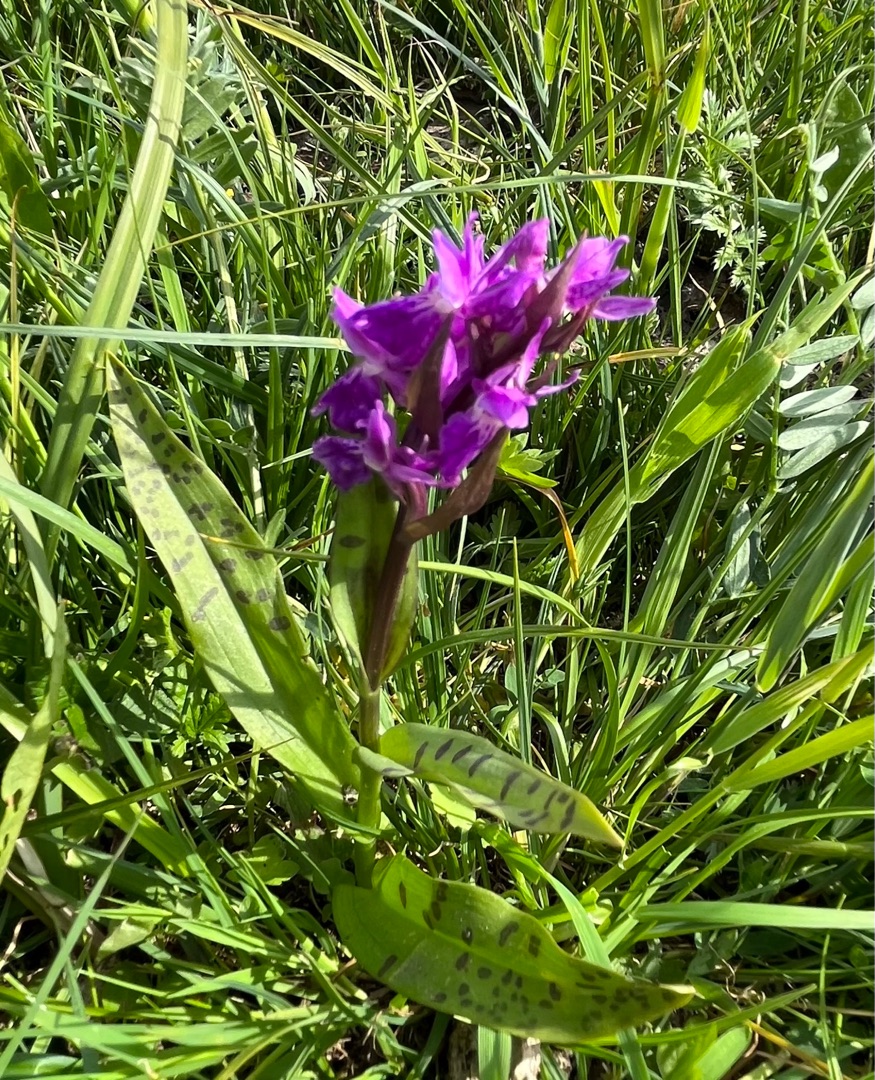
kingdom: Plantae
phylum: Tracheophyta
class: Liliopsida
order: Asparagales
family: Orchidaceae
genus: Dactylorhiza
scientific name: Dactylorhiza majalis
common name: Maj-gøgeurt
